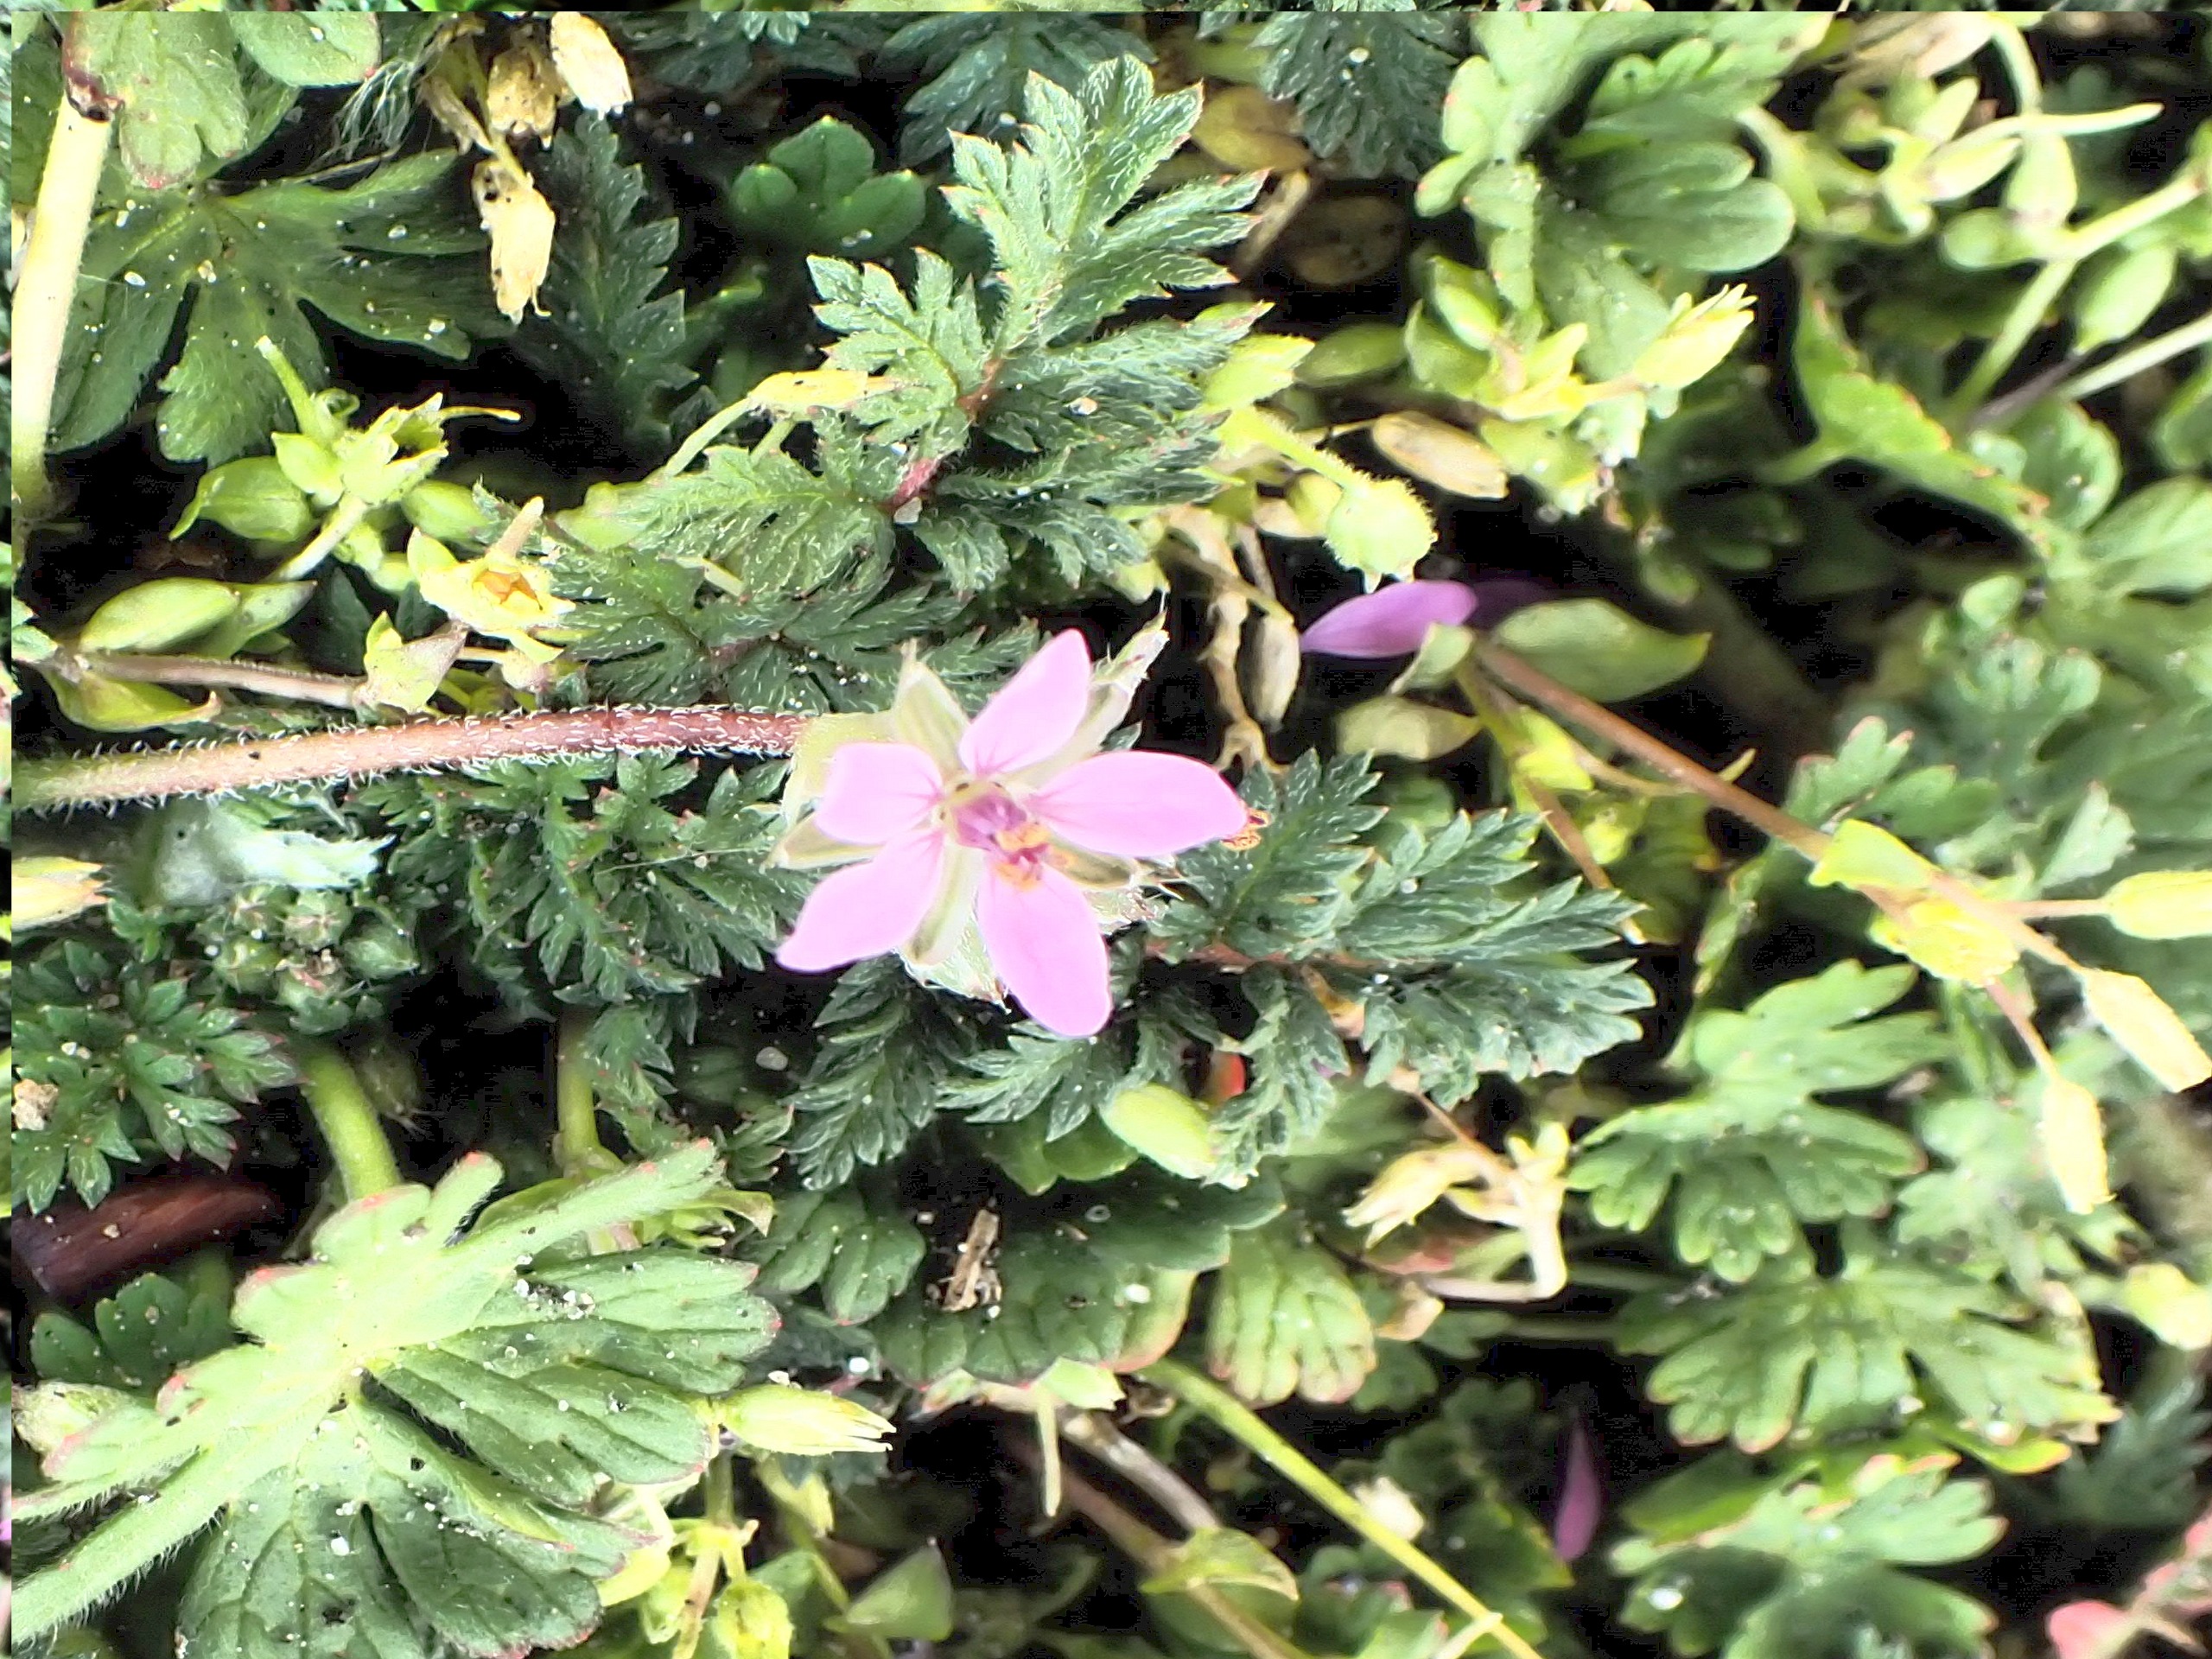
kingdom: Plantae
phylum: Tracheophyta
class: Magnoliopsida
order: Geraniales
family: Geraniaceae
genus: Erodium
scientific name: Erodium cicutarium
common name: Hejrenæb
